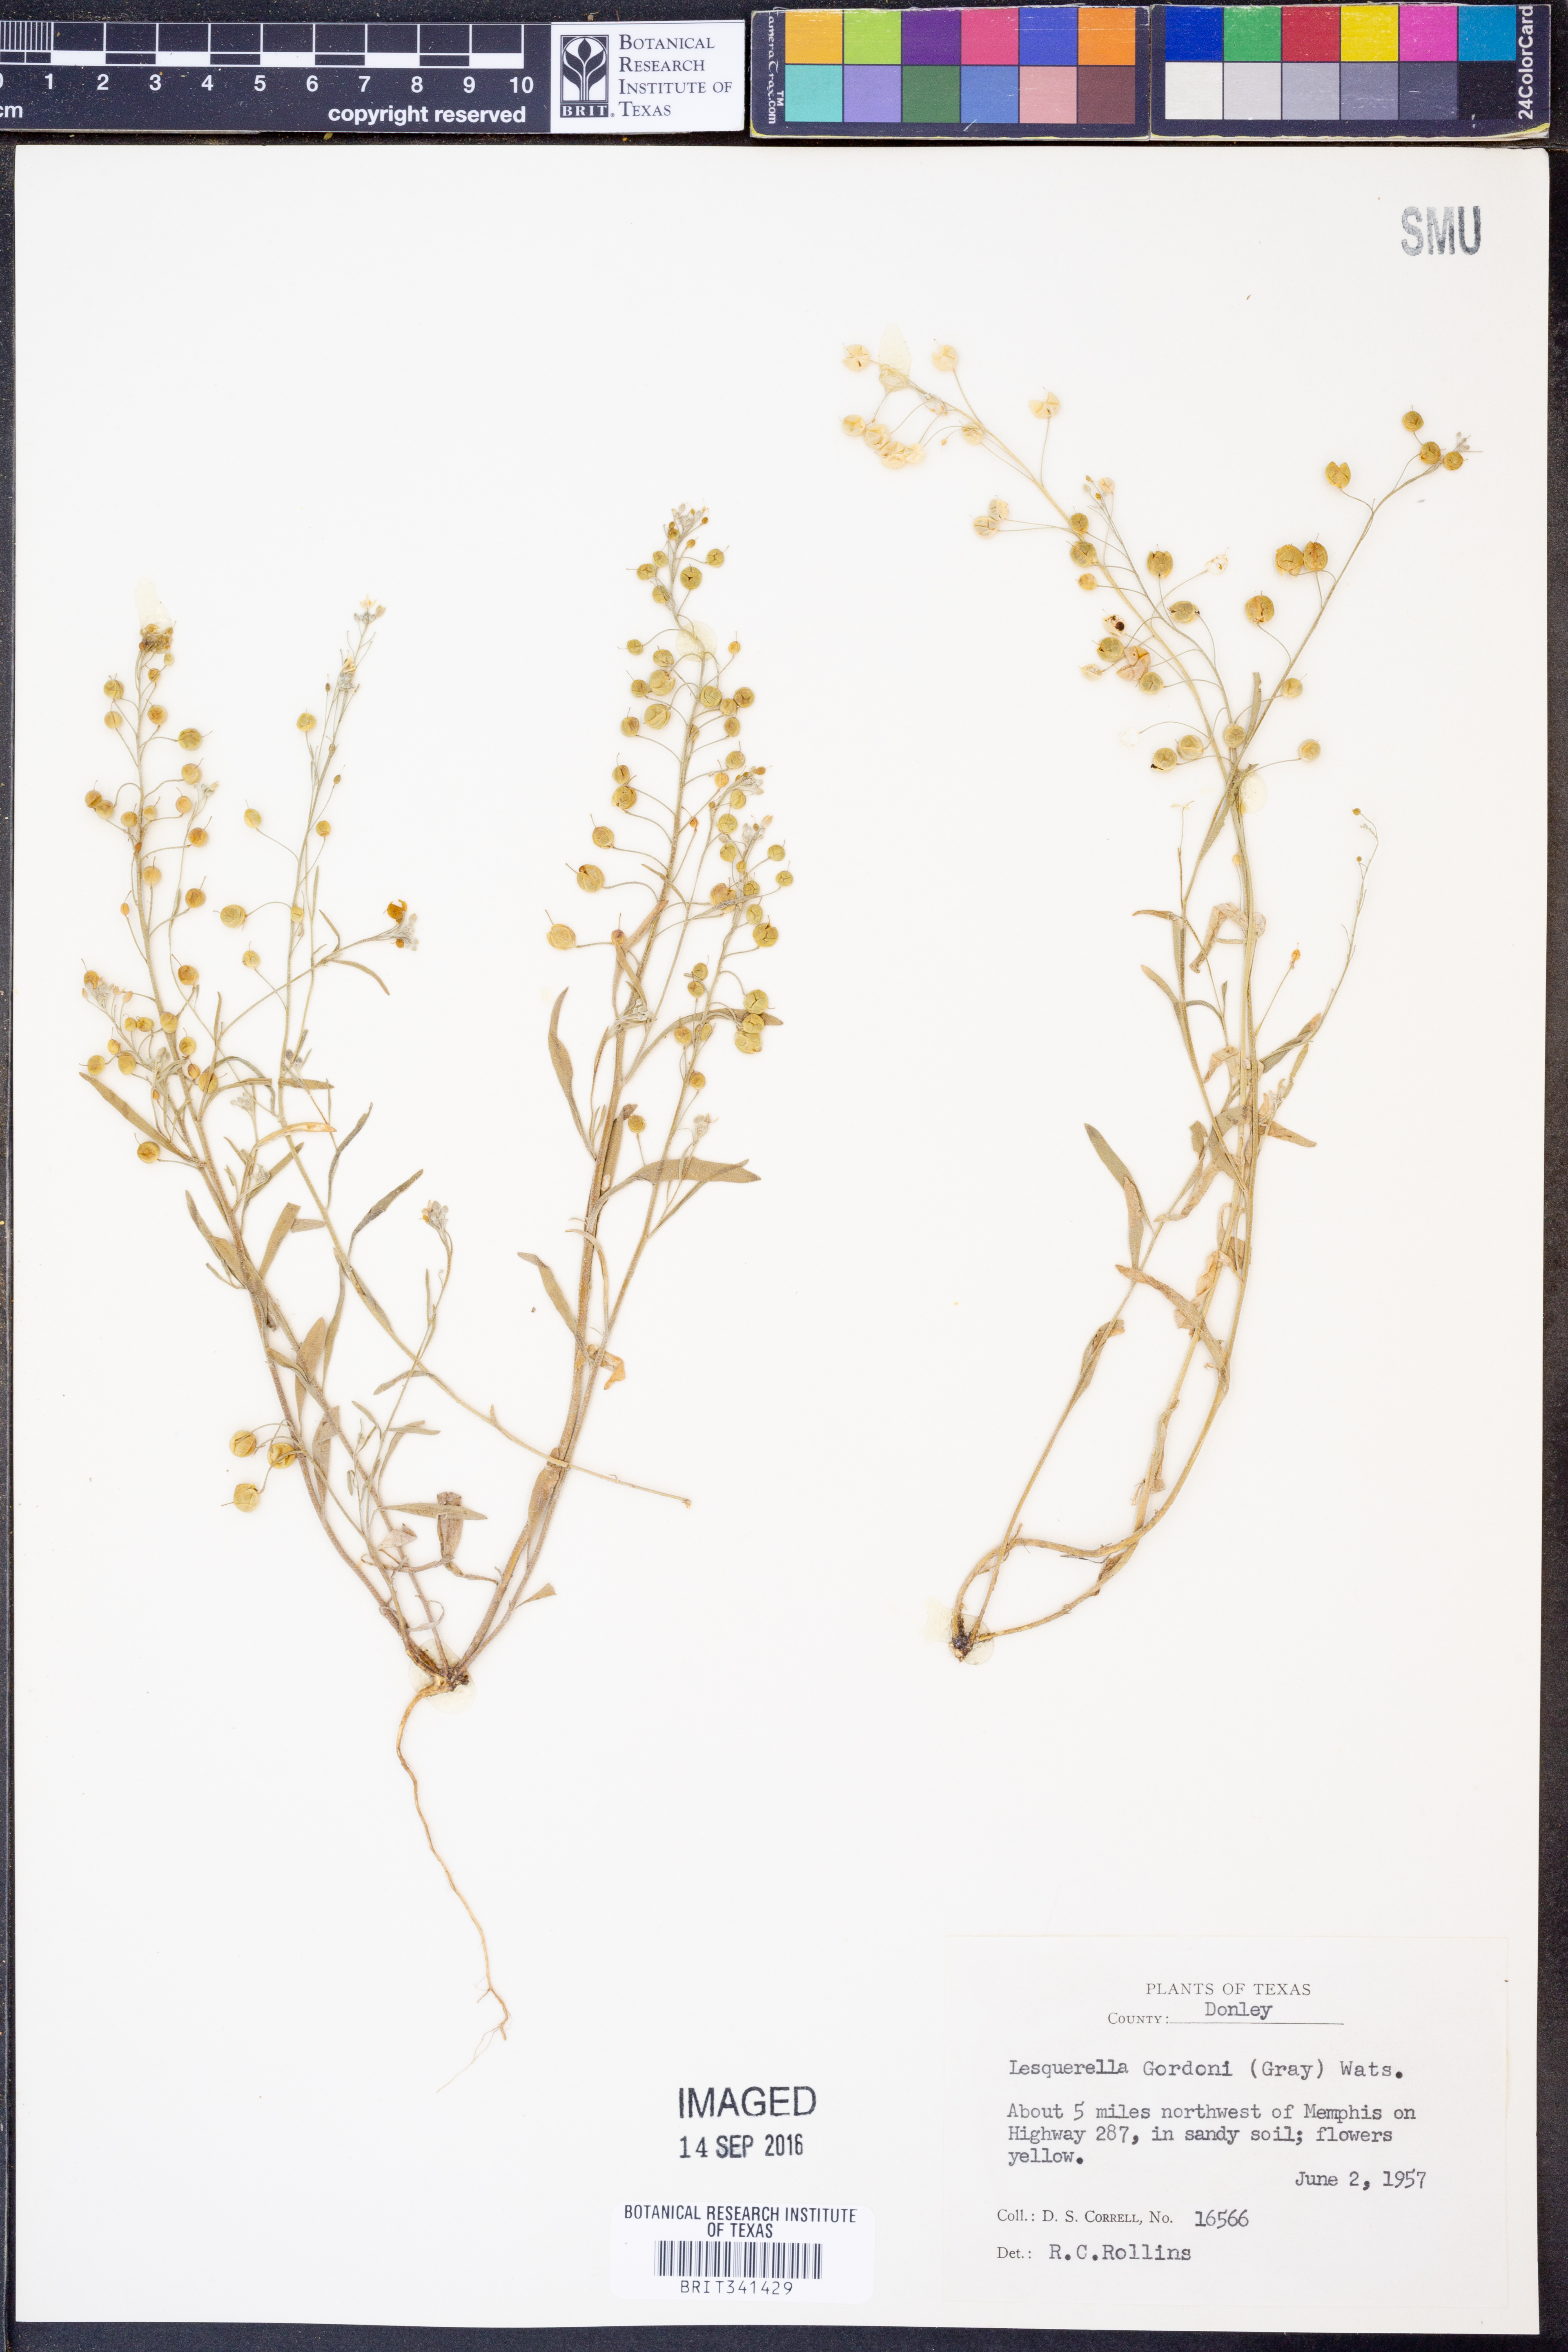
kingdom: Plantae
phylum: Tracheophyta
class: Magnoliopsida
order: Brassicales
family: Brassicaceae
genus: Physaria
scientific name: Physaria gordonii
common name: Gordon's bladderpod
